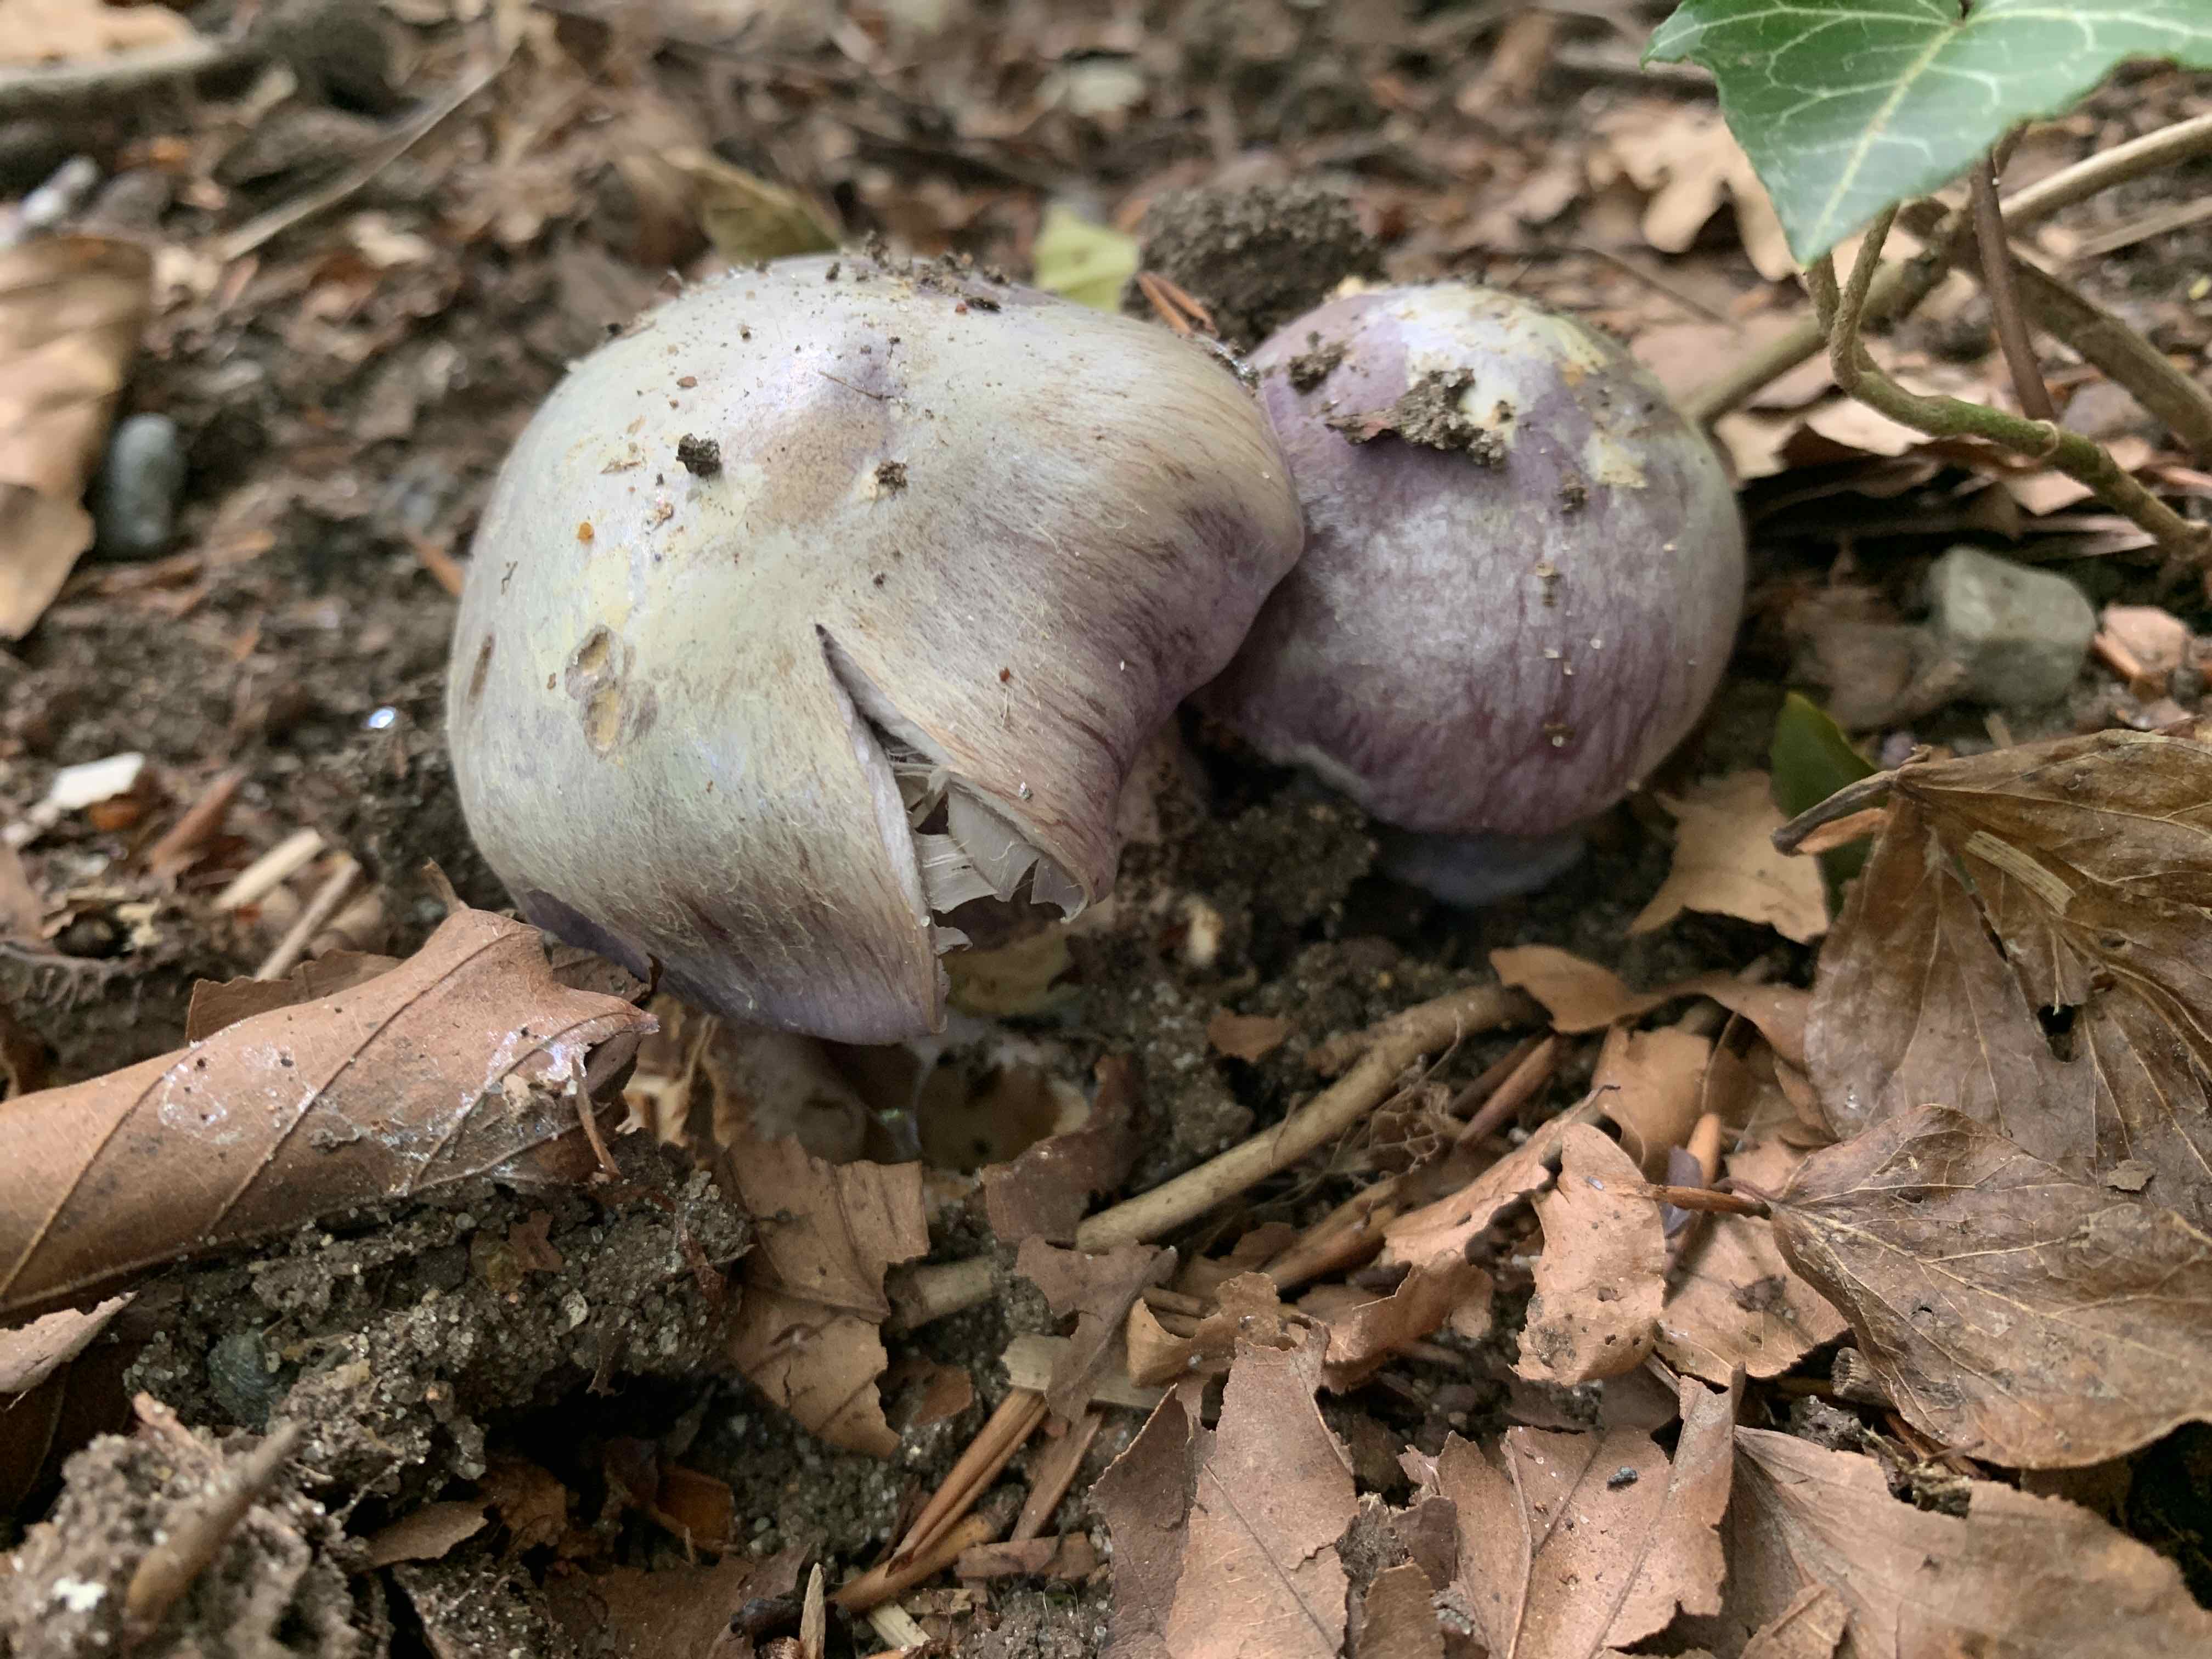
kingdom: Fungi
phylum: Basidiomycota
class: Agaricomycetes
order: Agaricales
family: Cortinariaceae
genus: Cortinarius
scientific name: Cortinarius caerulescens
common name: blåkødet slørhat
